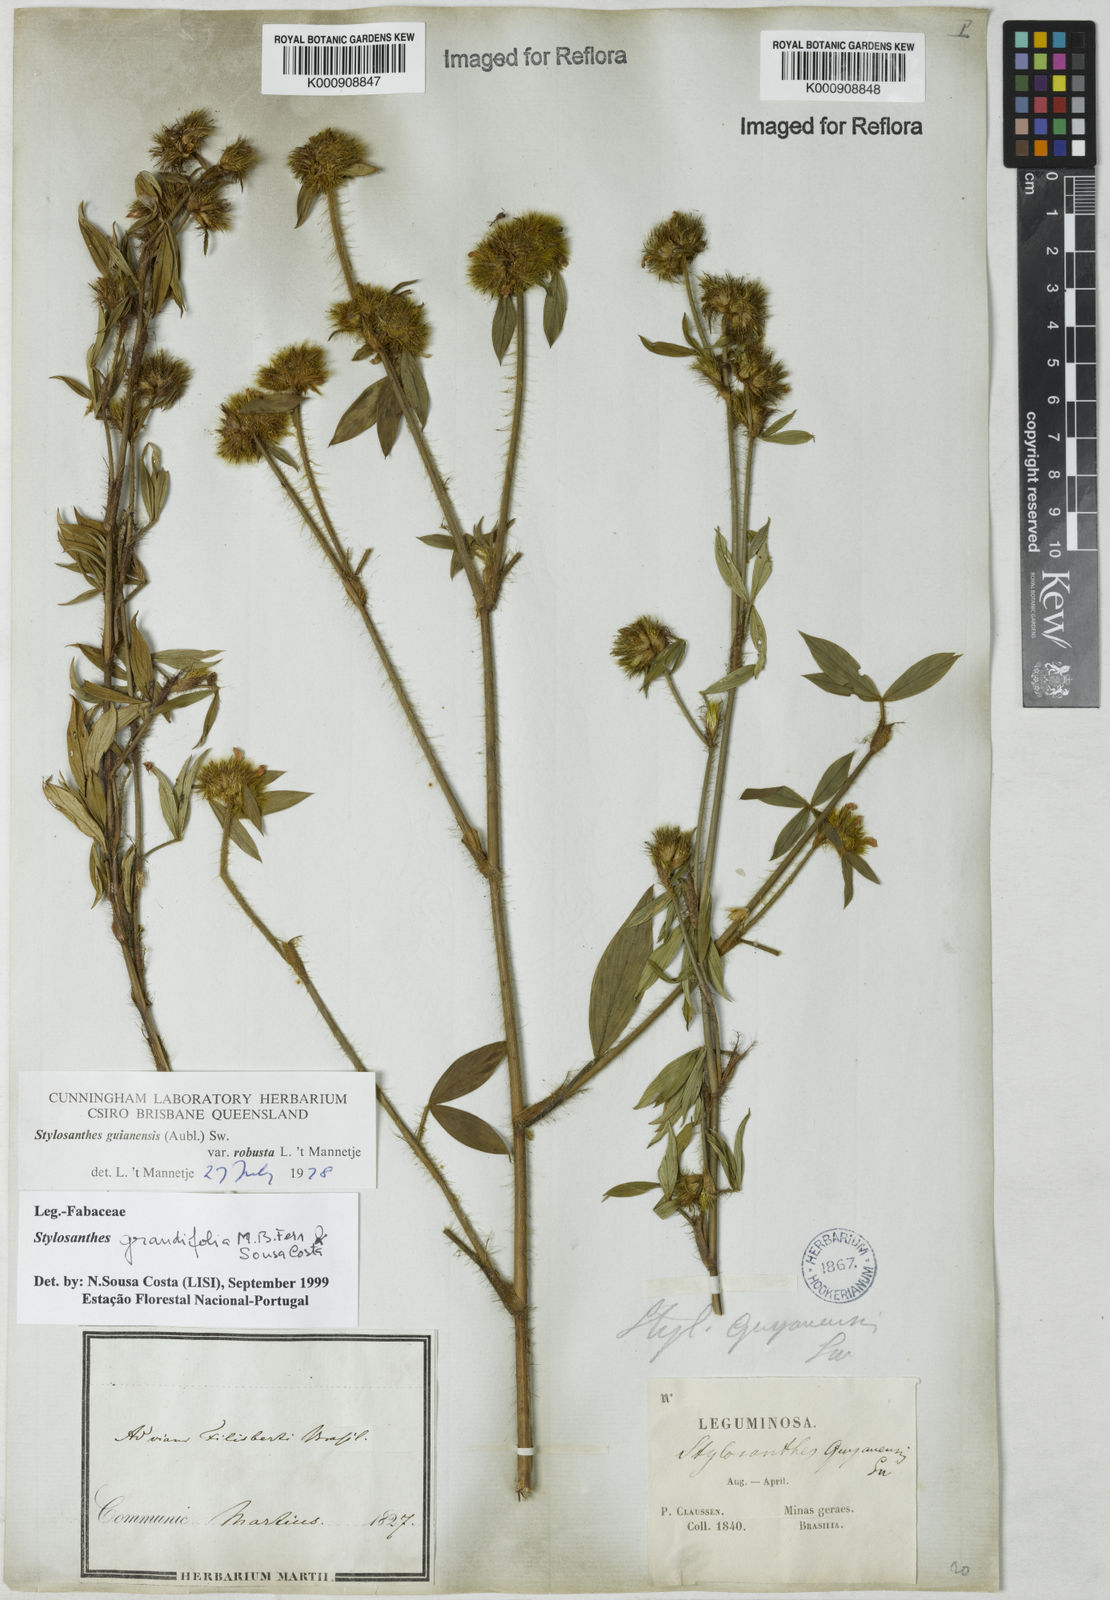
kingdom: Plantae
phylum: Tracheophyta
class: Magnoliopsida
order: Fabales
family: Fabaceae
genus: Stylosanthes
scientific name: Stylosanthes guianensis
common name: Pencil flower
